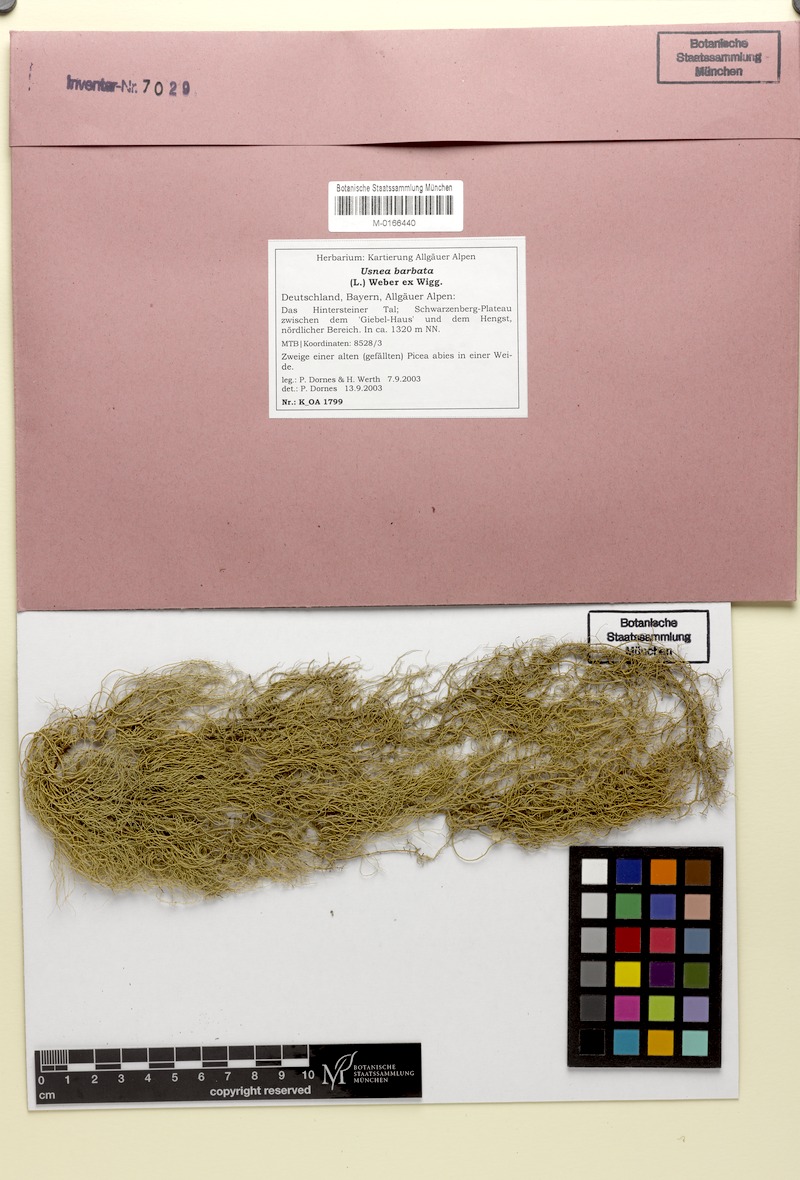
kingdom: Fungi
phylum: Ascomycota
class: Lecanoromycetes
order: Lecanorales
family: Parmeliaceae
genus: Usnea
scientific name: Usnea barbata
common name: Old man's beard lichen
